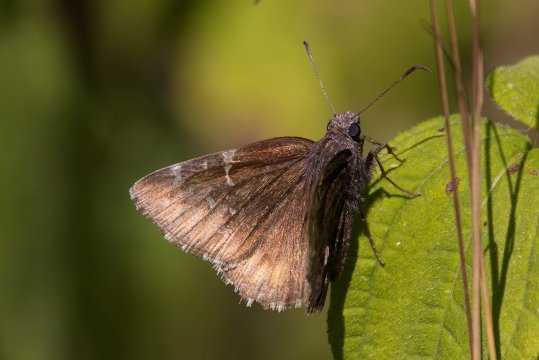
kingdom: Animalia
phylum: Arthropoda
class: Insecta
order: Lepidoptera
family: Hesperiidae
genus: Autochton
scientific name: Autochton
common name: Northern Cloudywing
